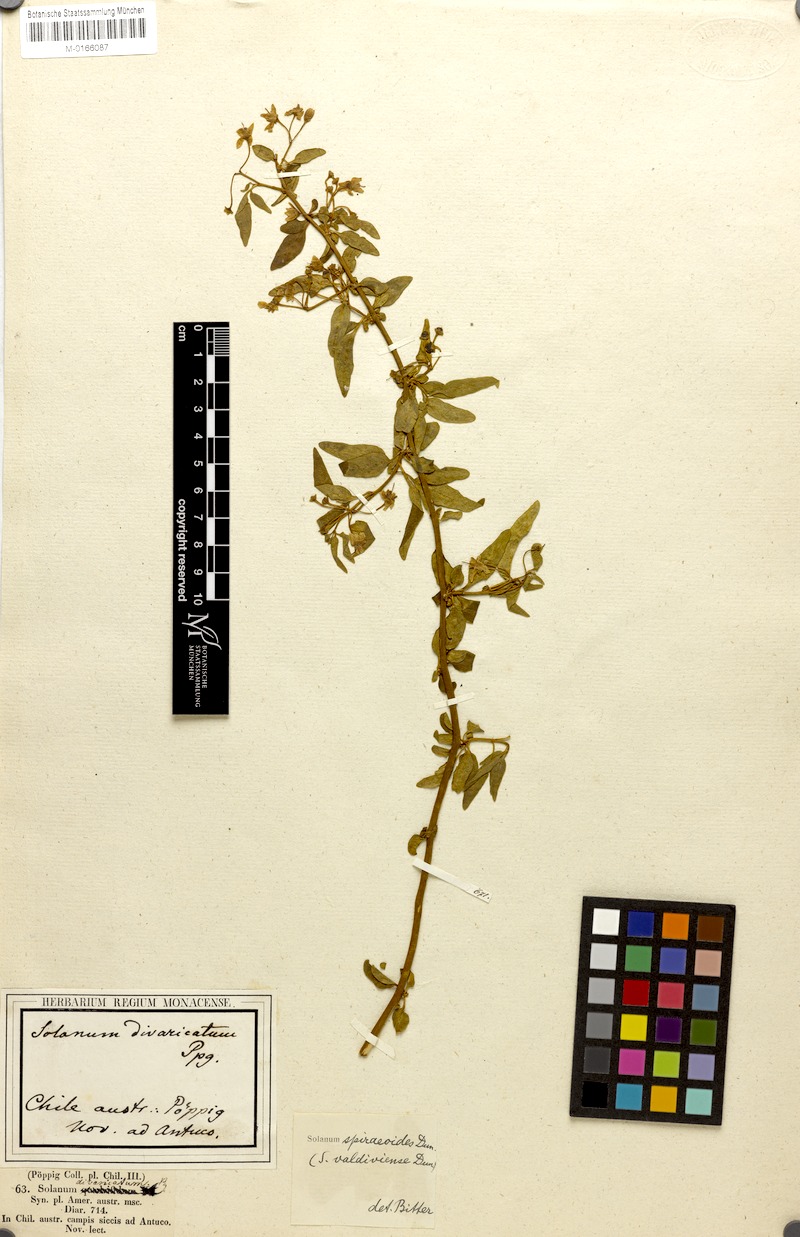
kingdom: Plantae
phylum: Tracheophyta
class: Magnoliopsida
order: Solanales
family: Solanaceae
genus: Solanum
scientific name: Solanum valdiviense
